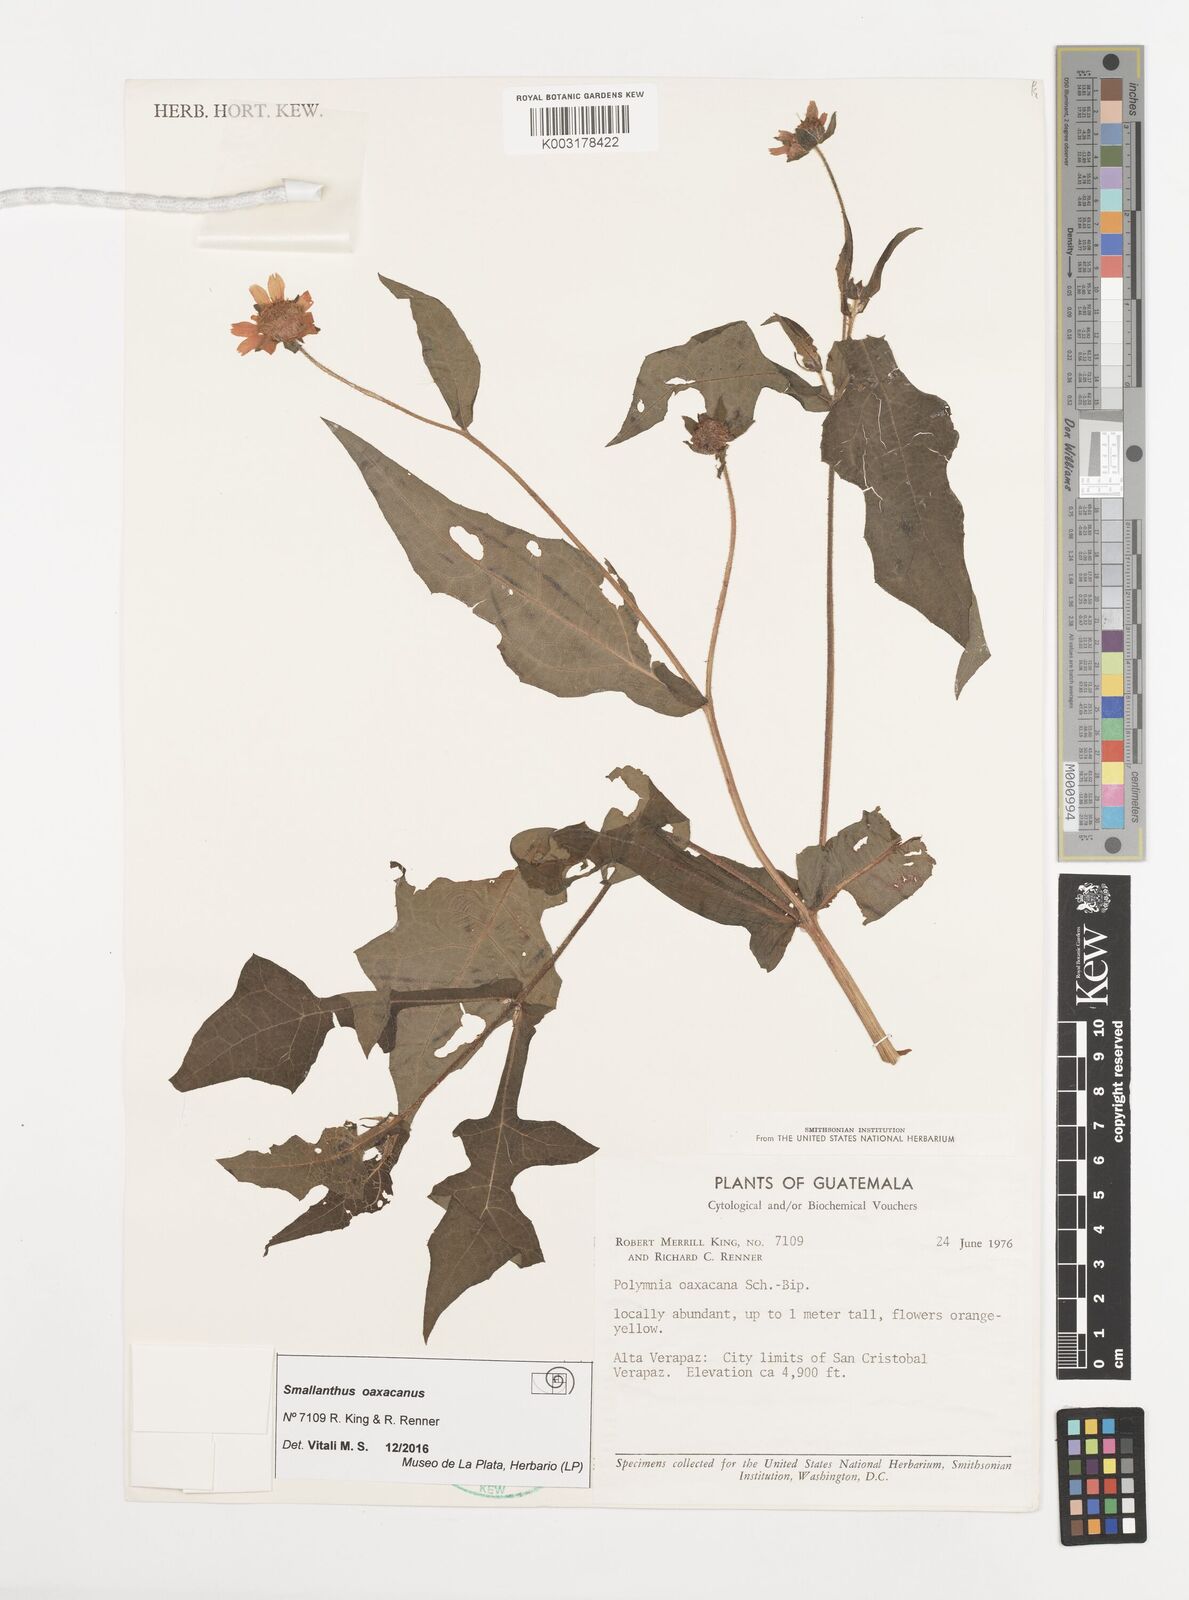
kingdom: Plantae
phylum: Tracheophyta
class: Magnoliopsida
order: Asterales
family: Asteraceae
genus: Smallanthus
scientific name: Smallanthus oaxacanus
